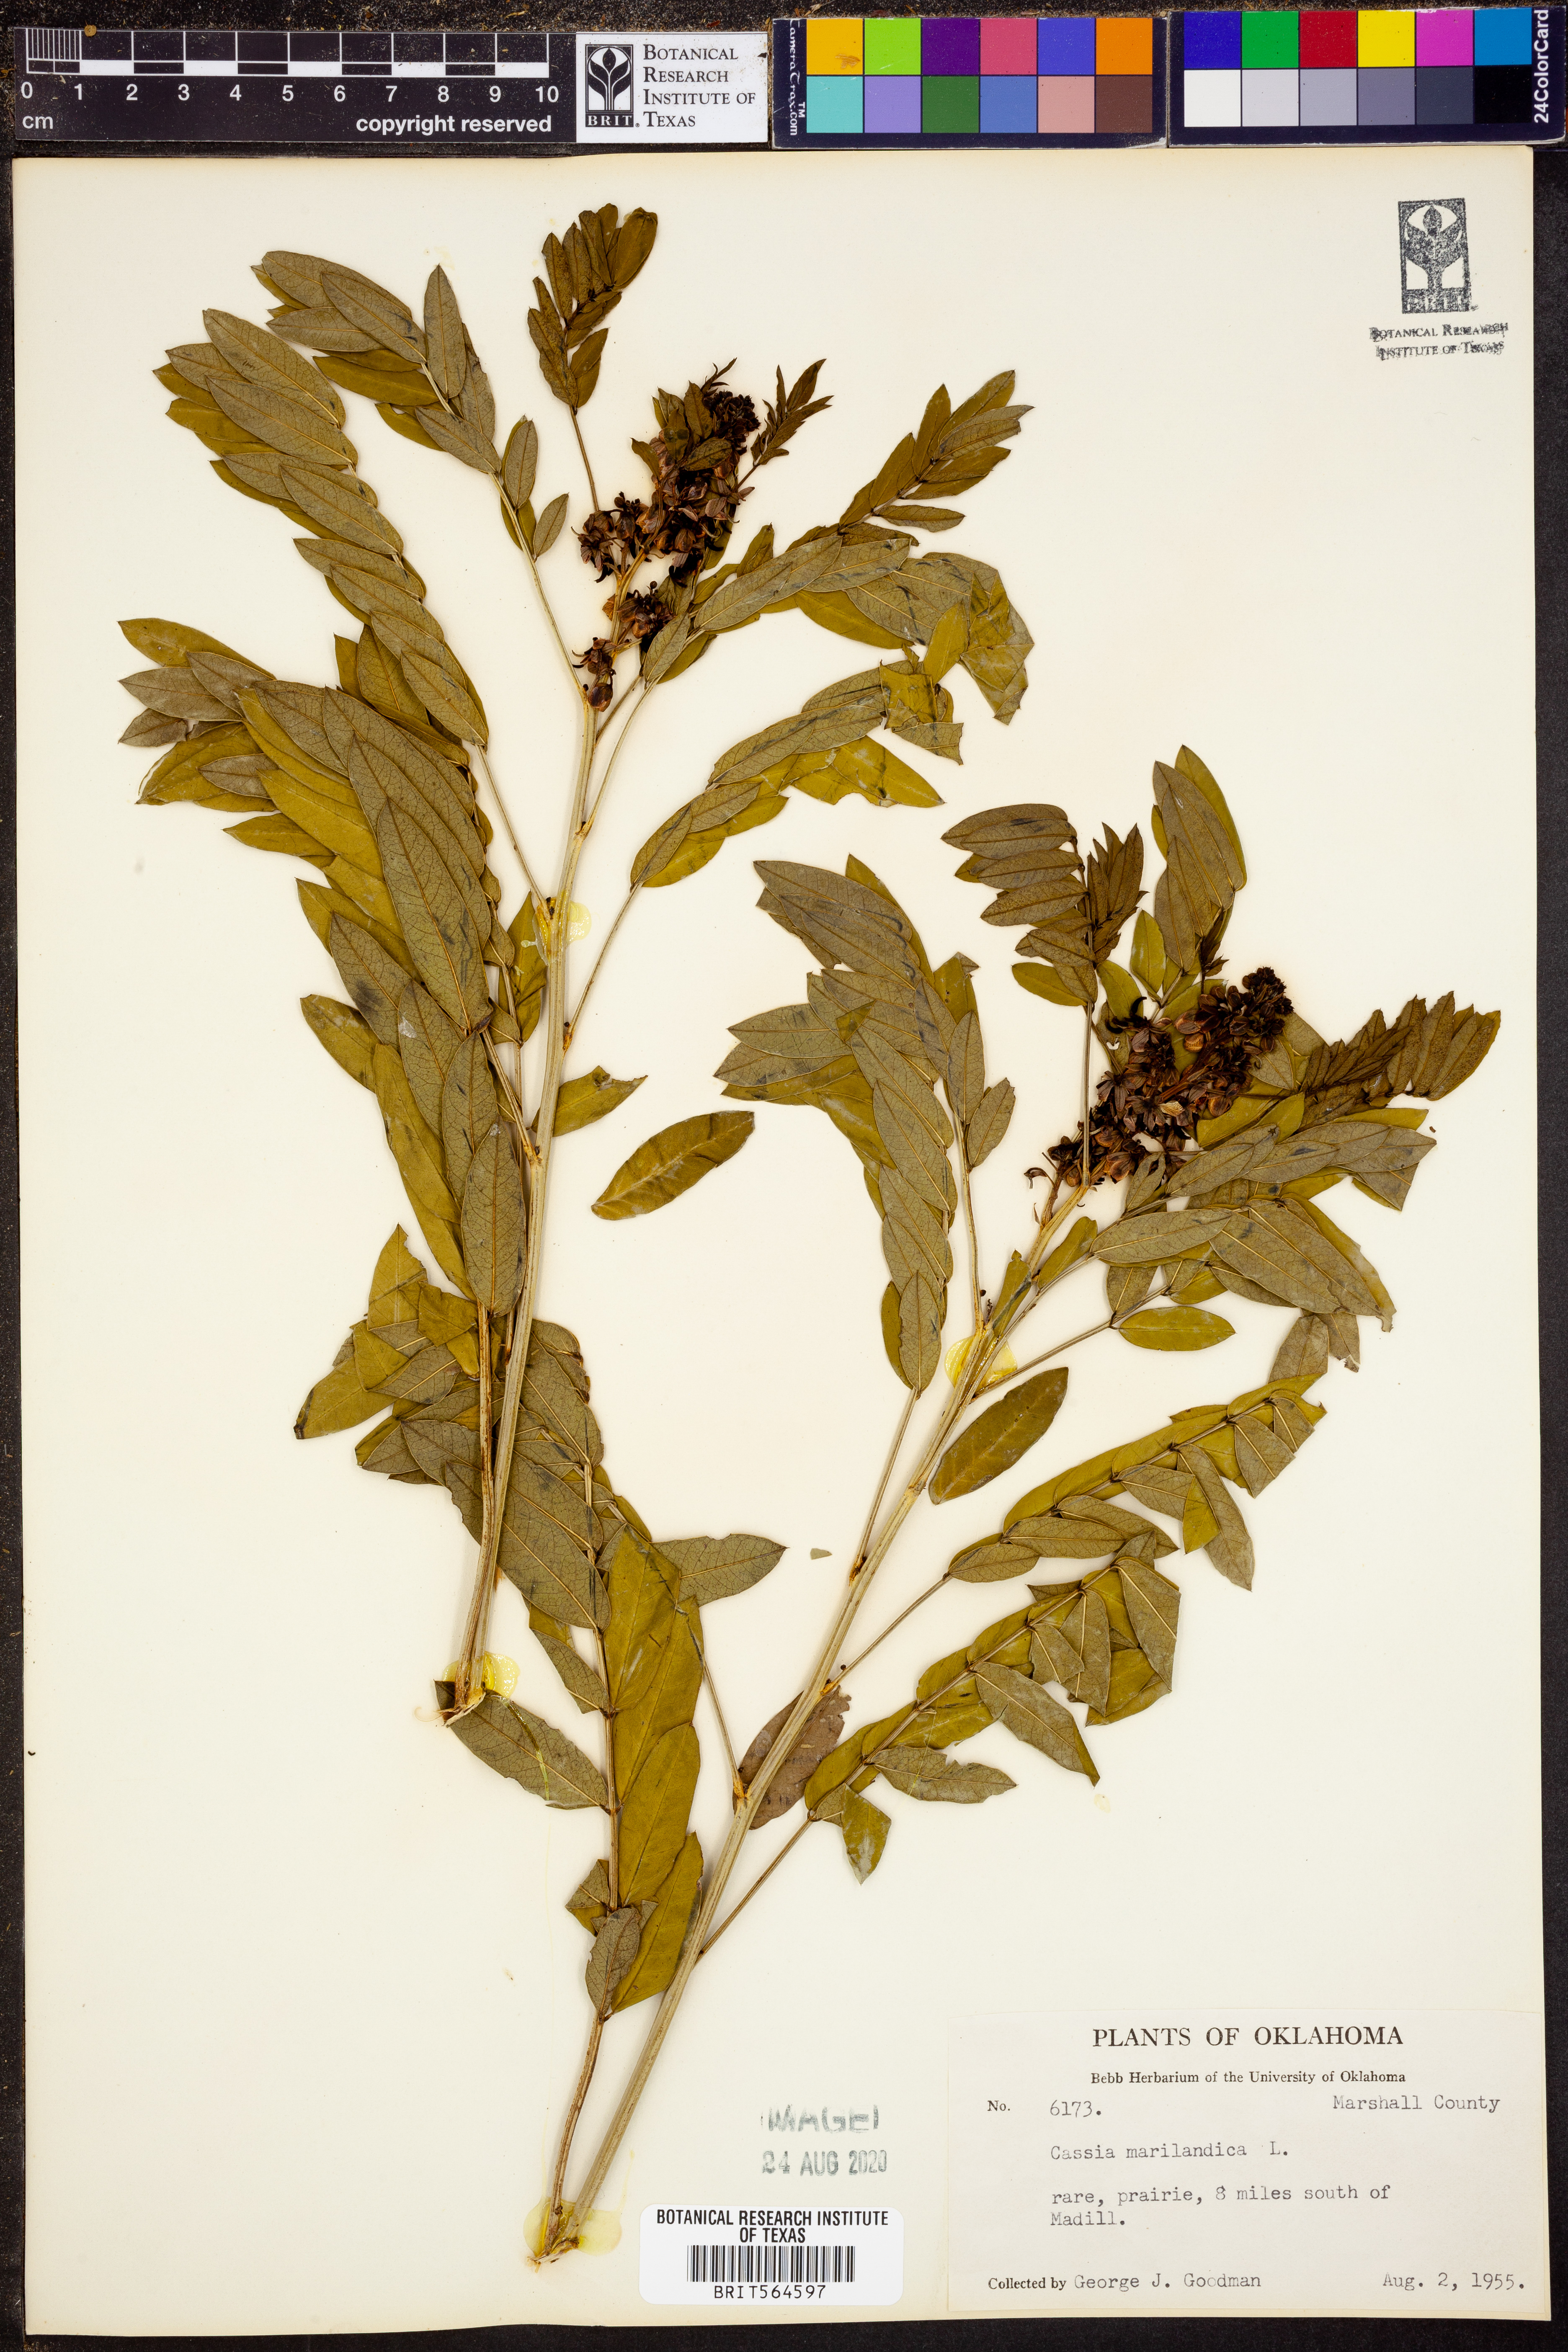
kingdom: Plantae
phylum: Tracheophyta
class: Magnoliopsida
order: Fabales
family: Fabaceae
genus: Senna
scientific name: Senna marilandica
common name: American senna
